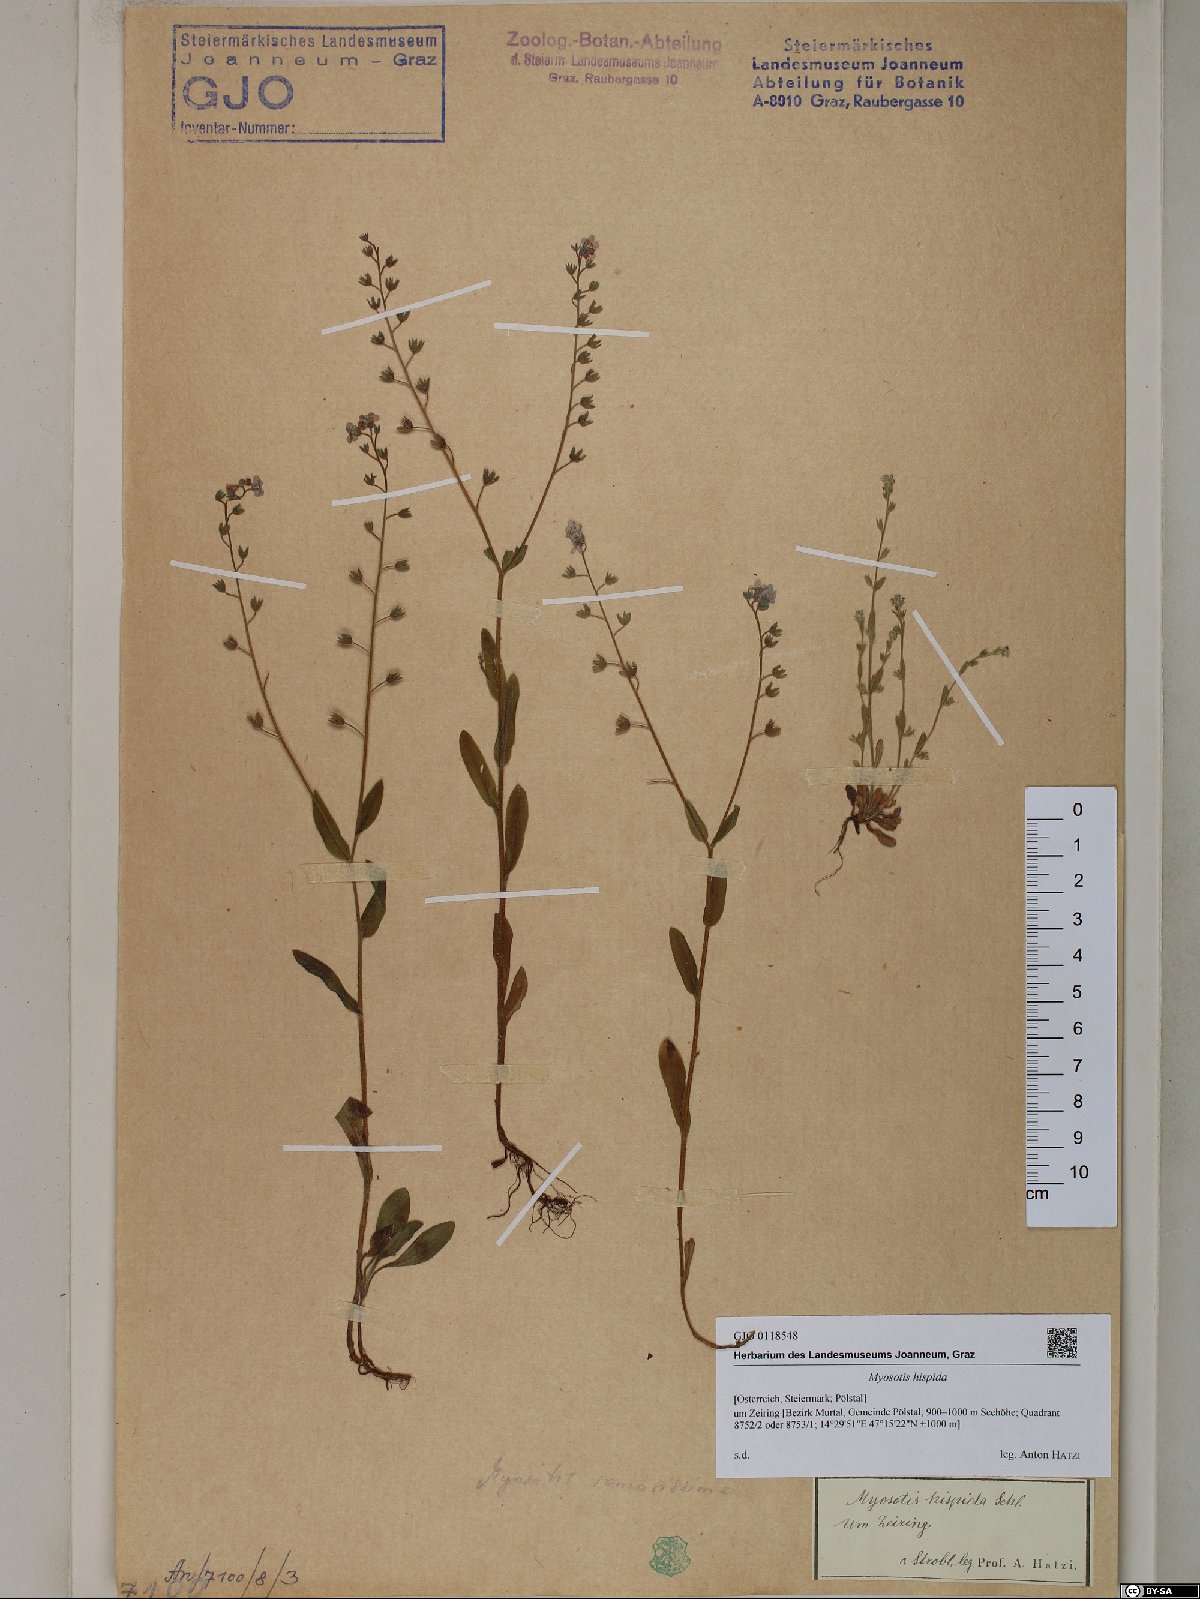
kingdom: Plantae
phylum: Tracheophyta
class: Magnoliopsida
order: Boraginales
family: Boraginaceae
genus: Myosotis
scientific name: Myosotis ramosissima
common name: Early forget-me-not
